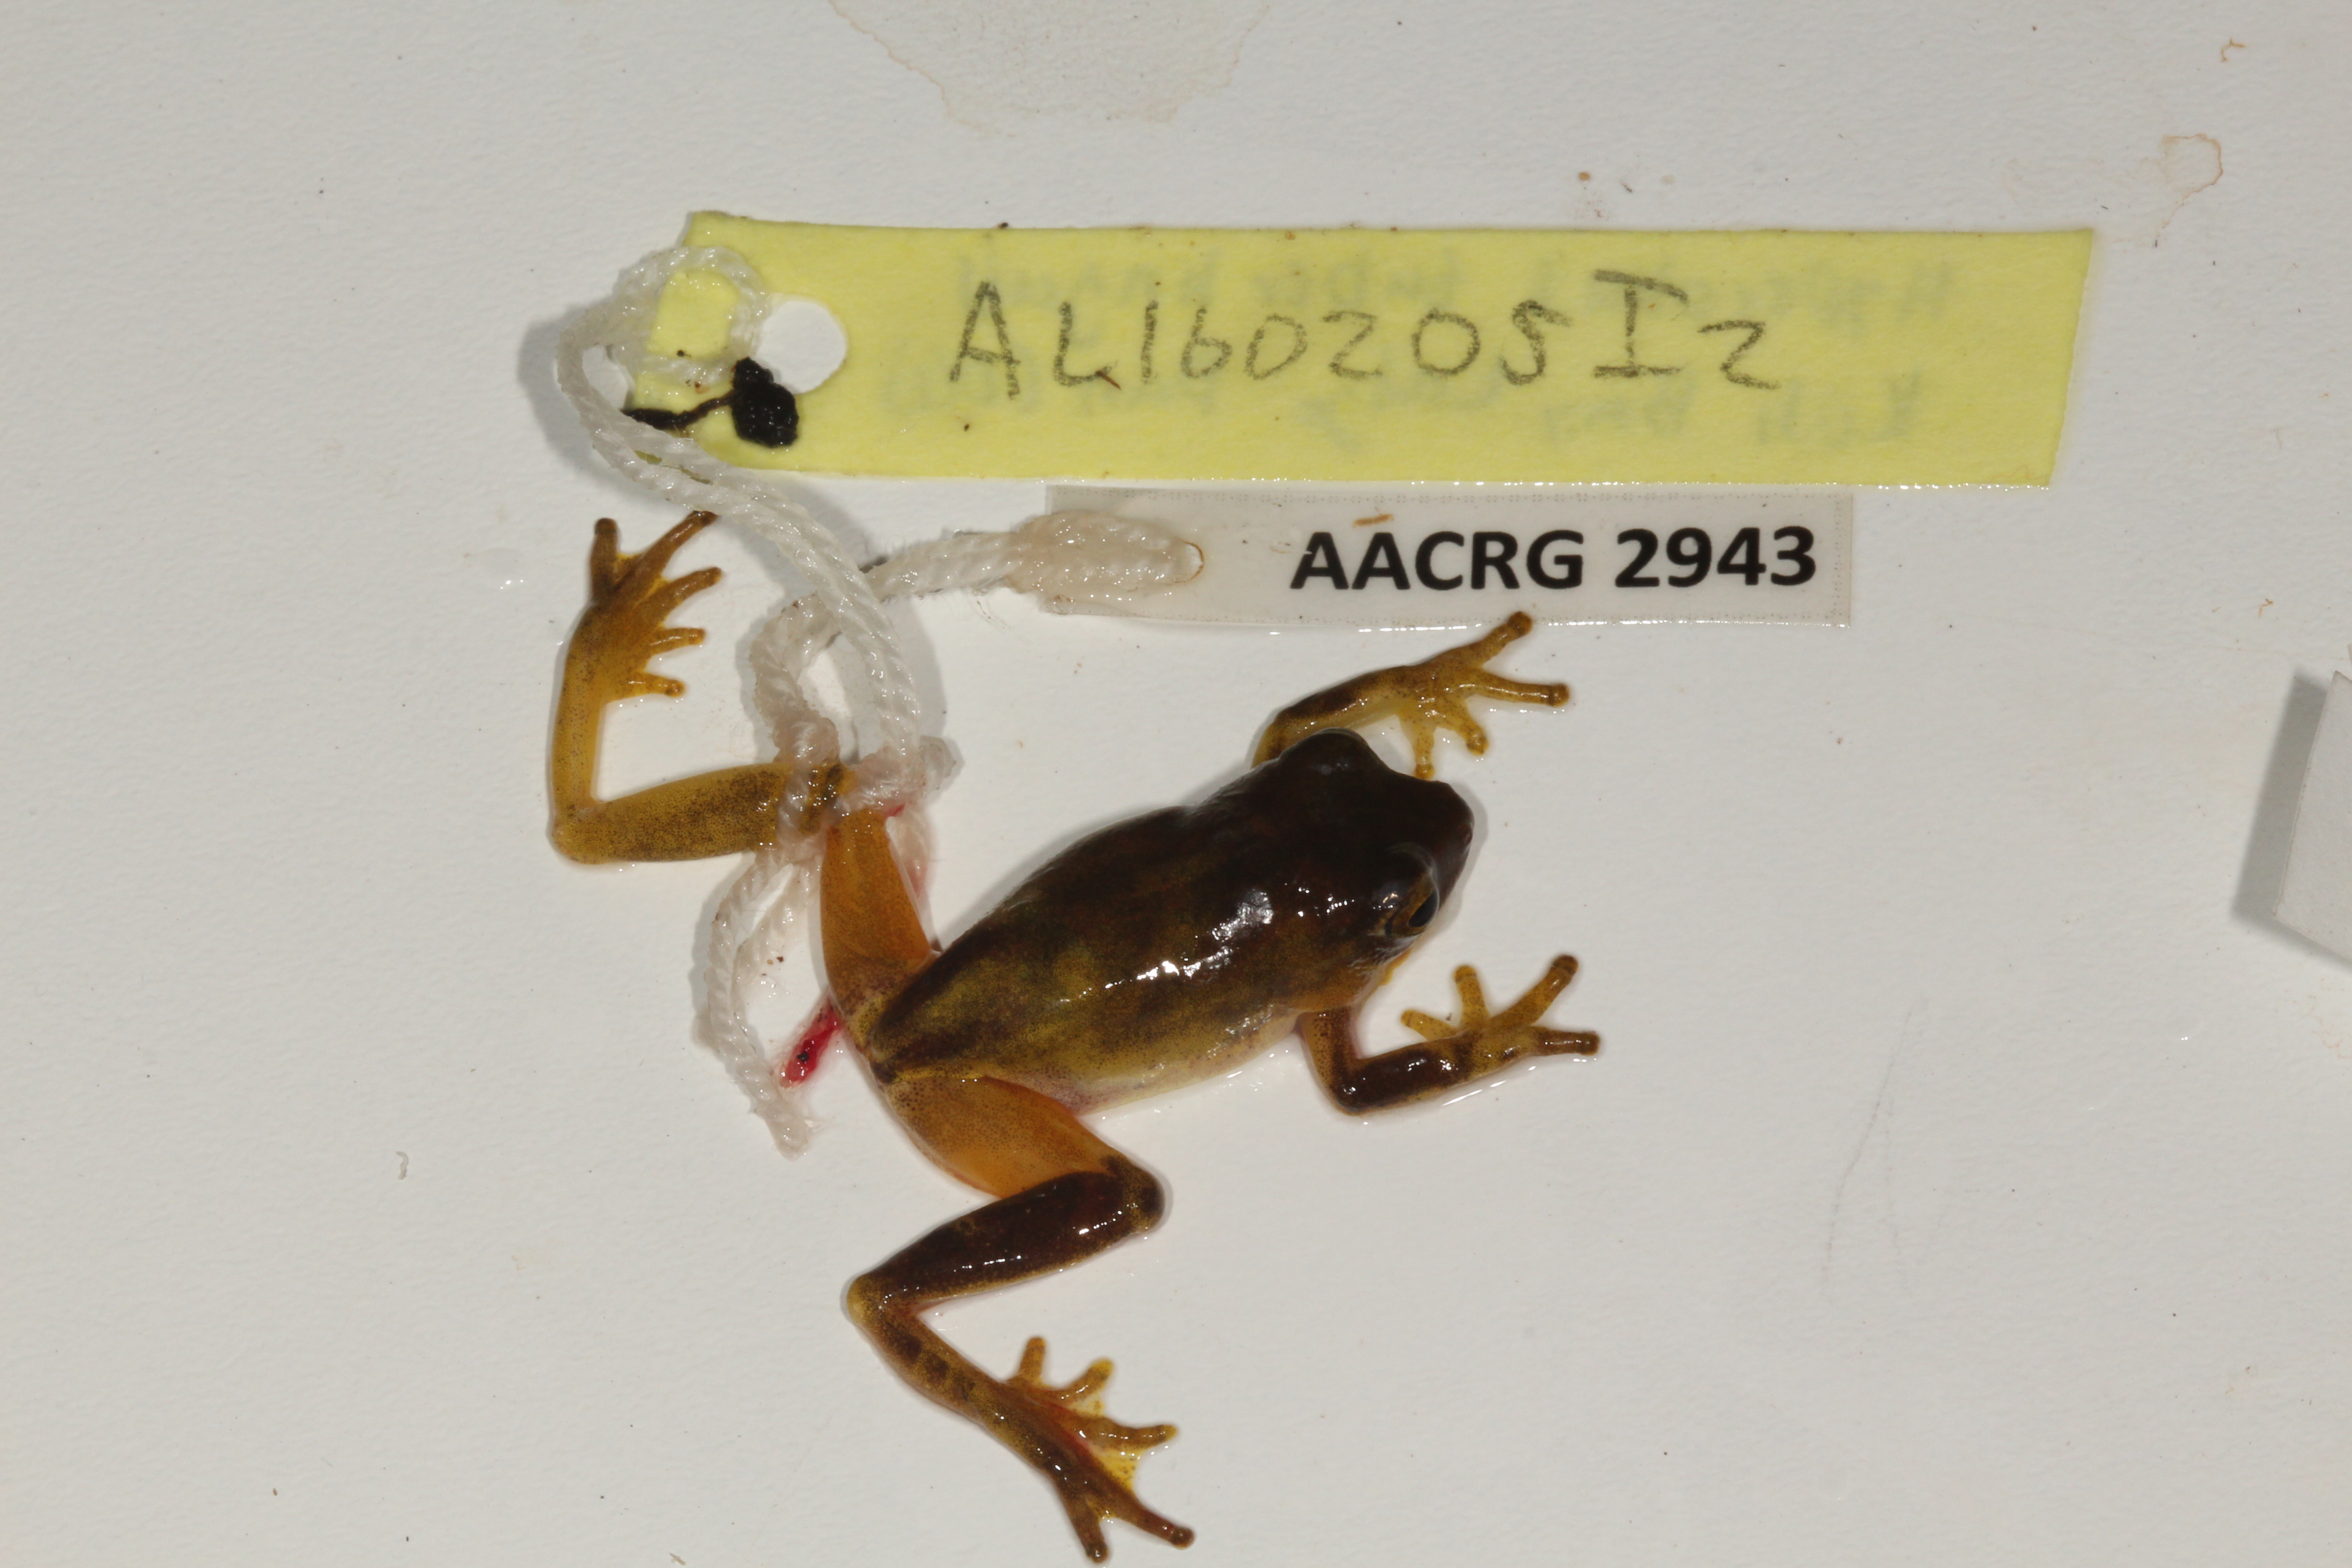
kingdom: Animalia
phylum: Chordata
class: Amphibia
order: Anura
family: Hyperoliidae
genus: Hyperolius
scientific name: Hyperolius tuberilinguis
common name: Tinker reed frog
